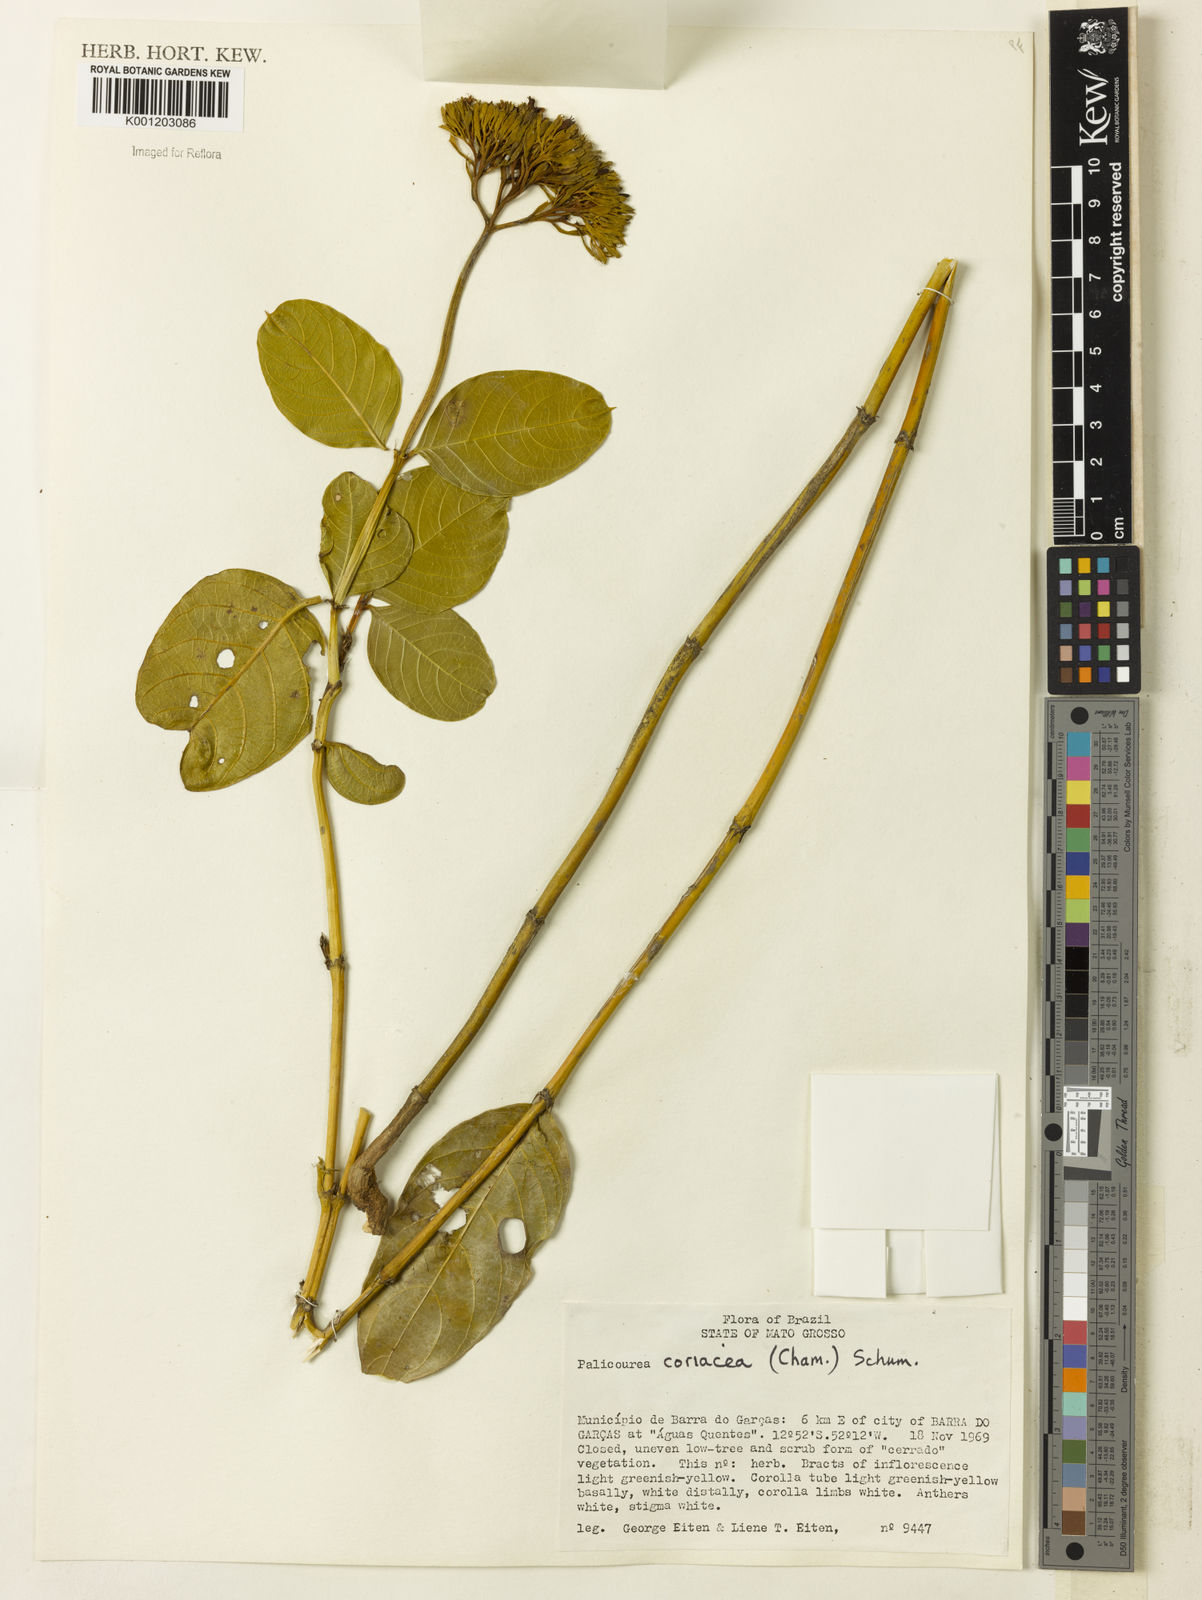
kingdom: Plantae
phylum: Tracheophyta
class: Magnoliopsida
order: Gentianales
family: Rubiaceae
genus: Palicourea
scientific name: Palicourea coriacea
